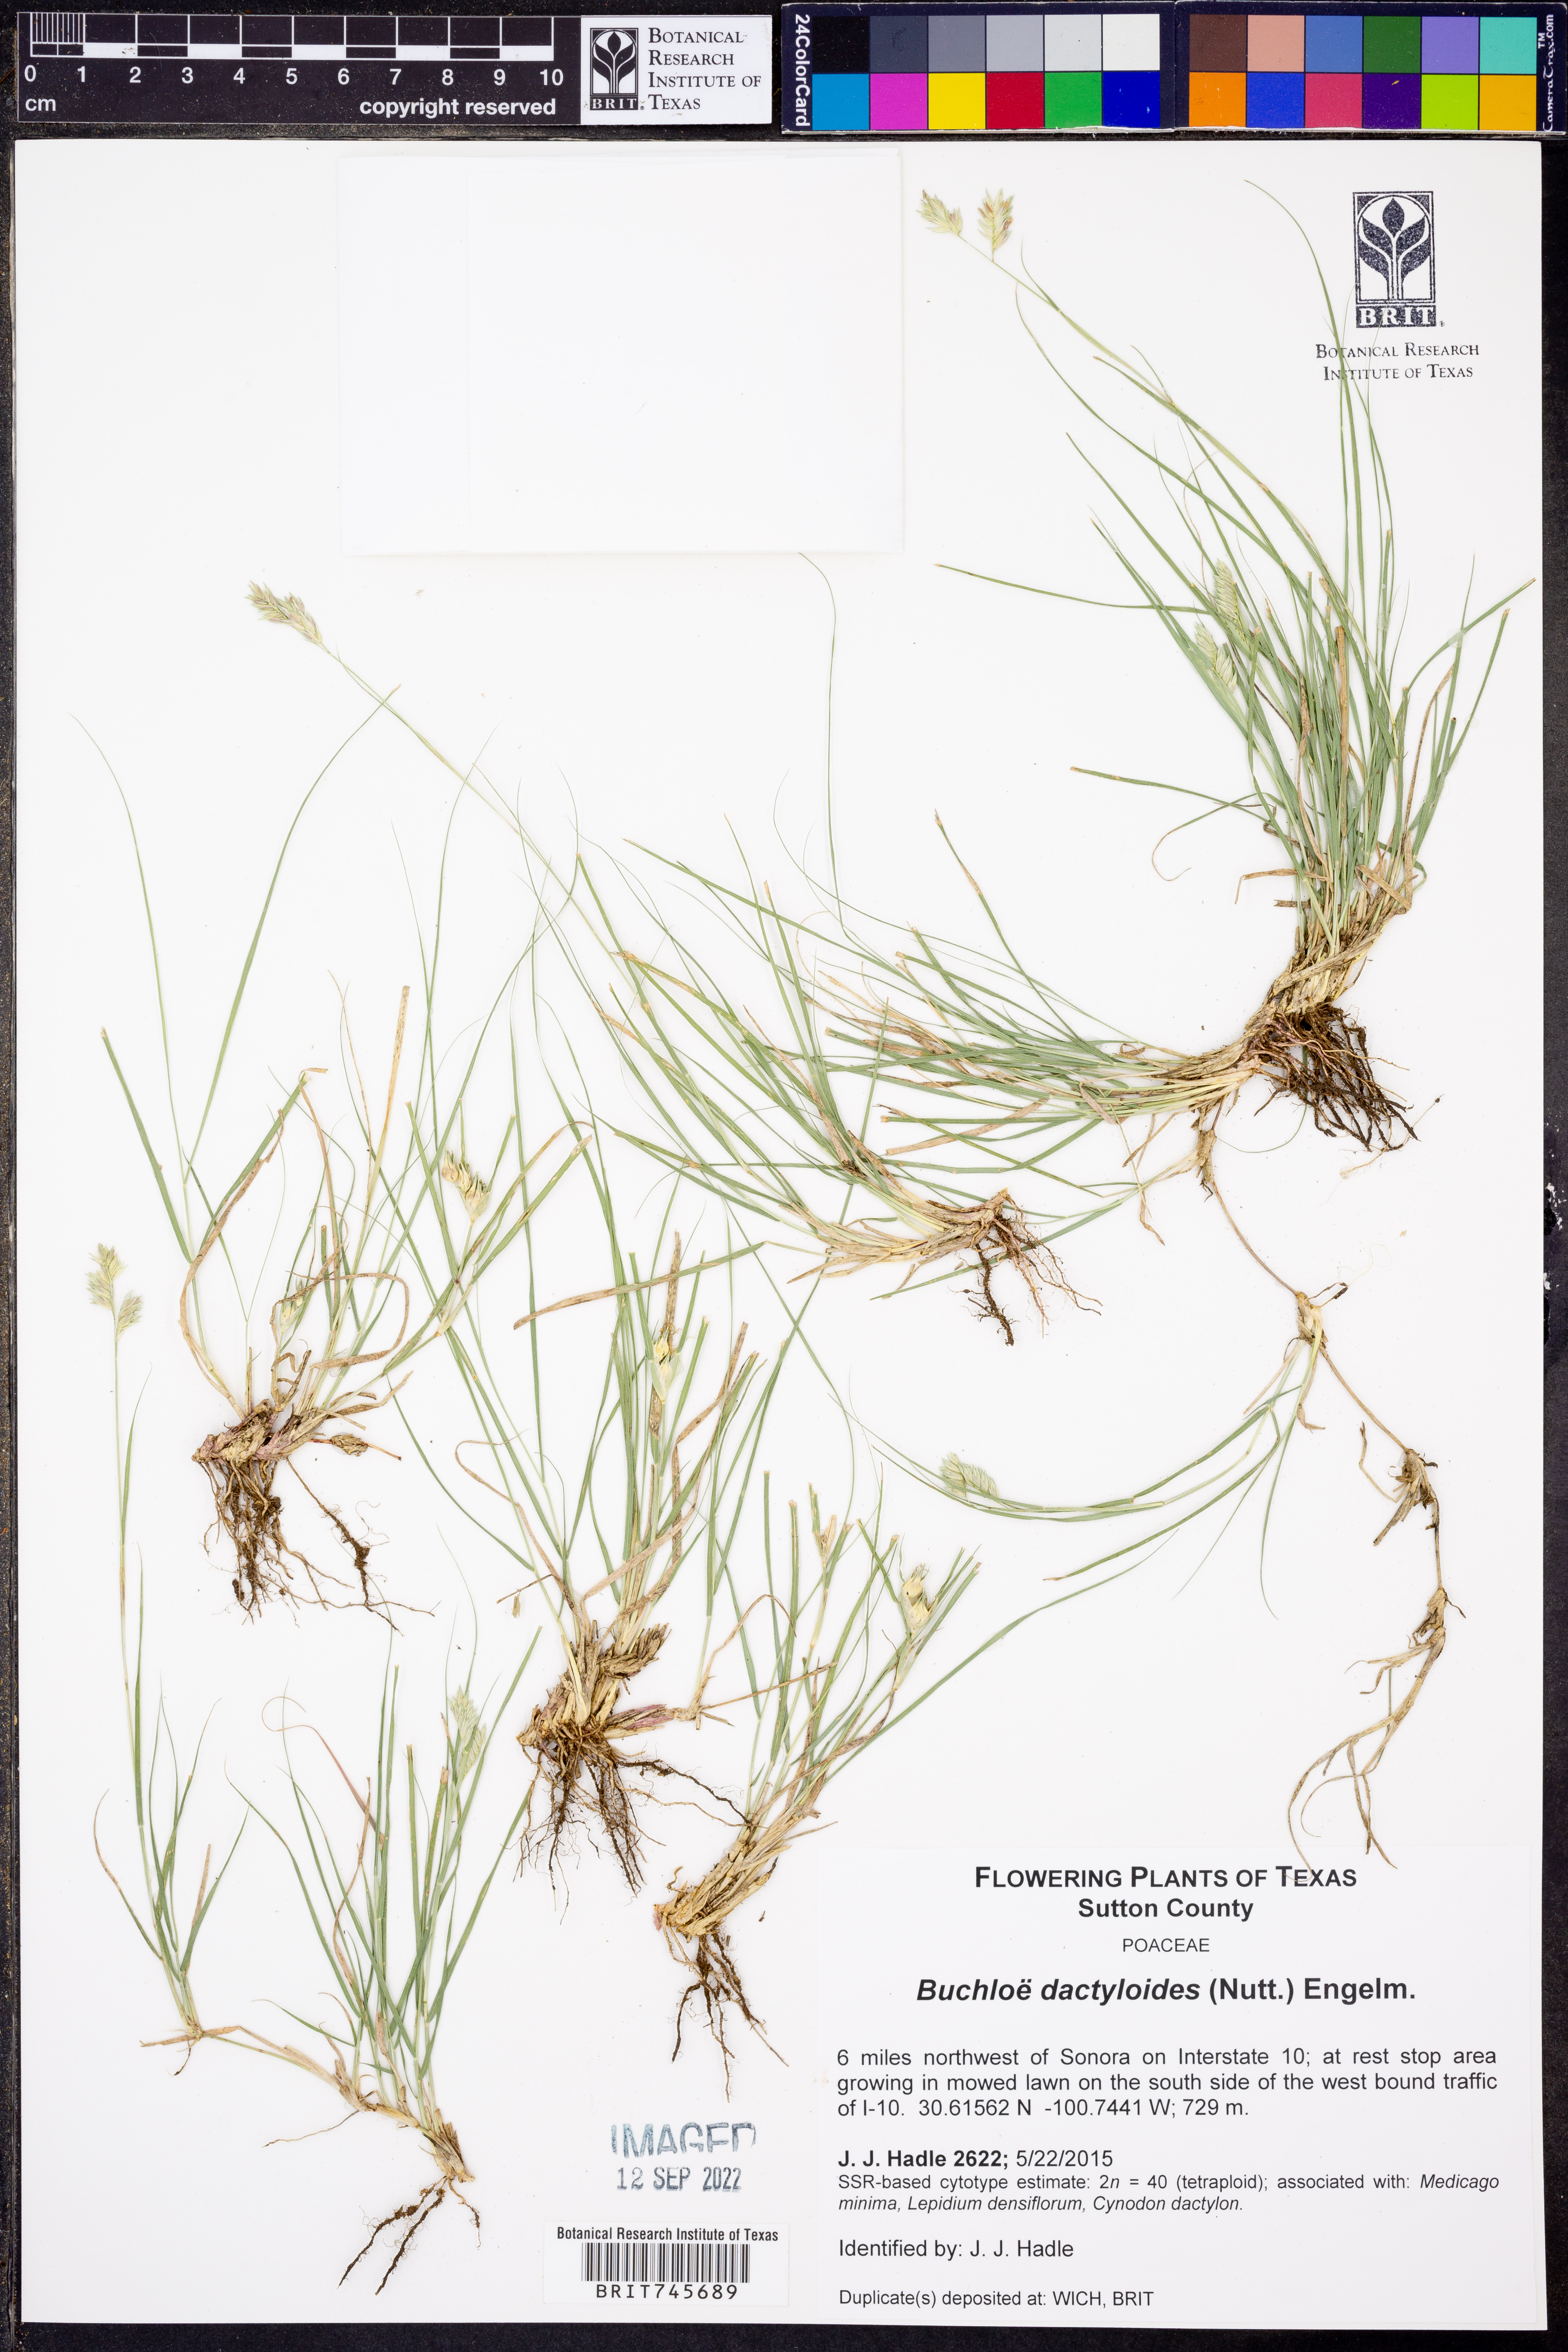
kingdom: Plantae
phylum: Tracheophyta
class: Liliopsida
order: Poales
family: Poaceae
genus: Bouteloua
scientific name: Bouteloua dactyloides
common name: Buffalo grass
